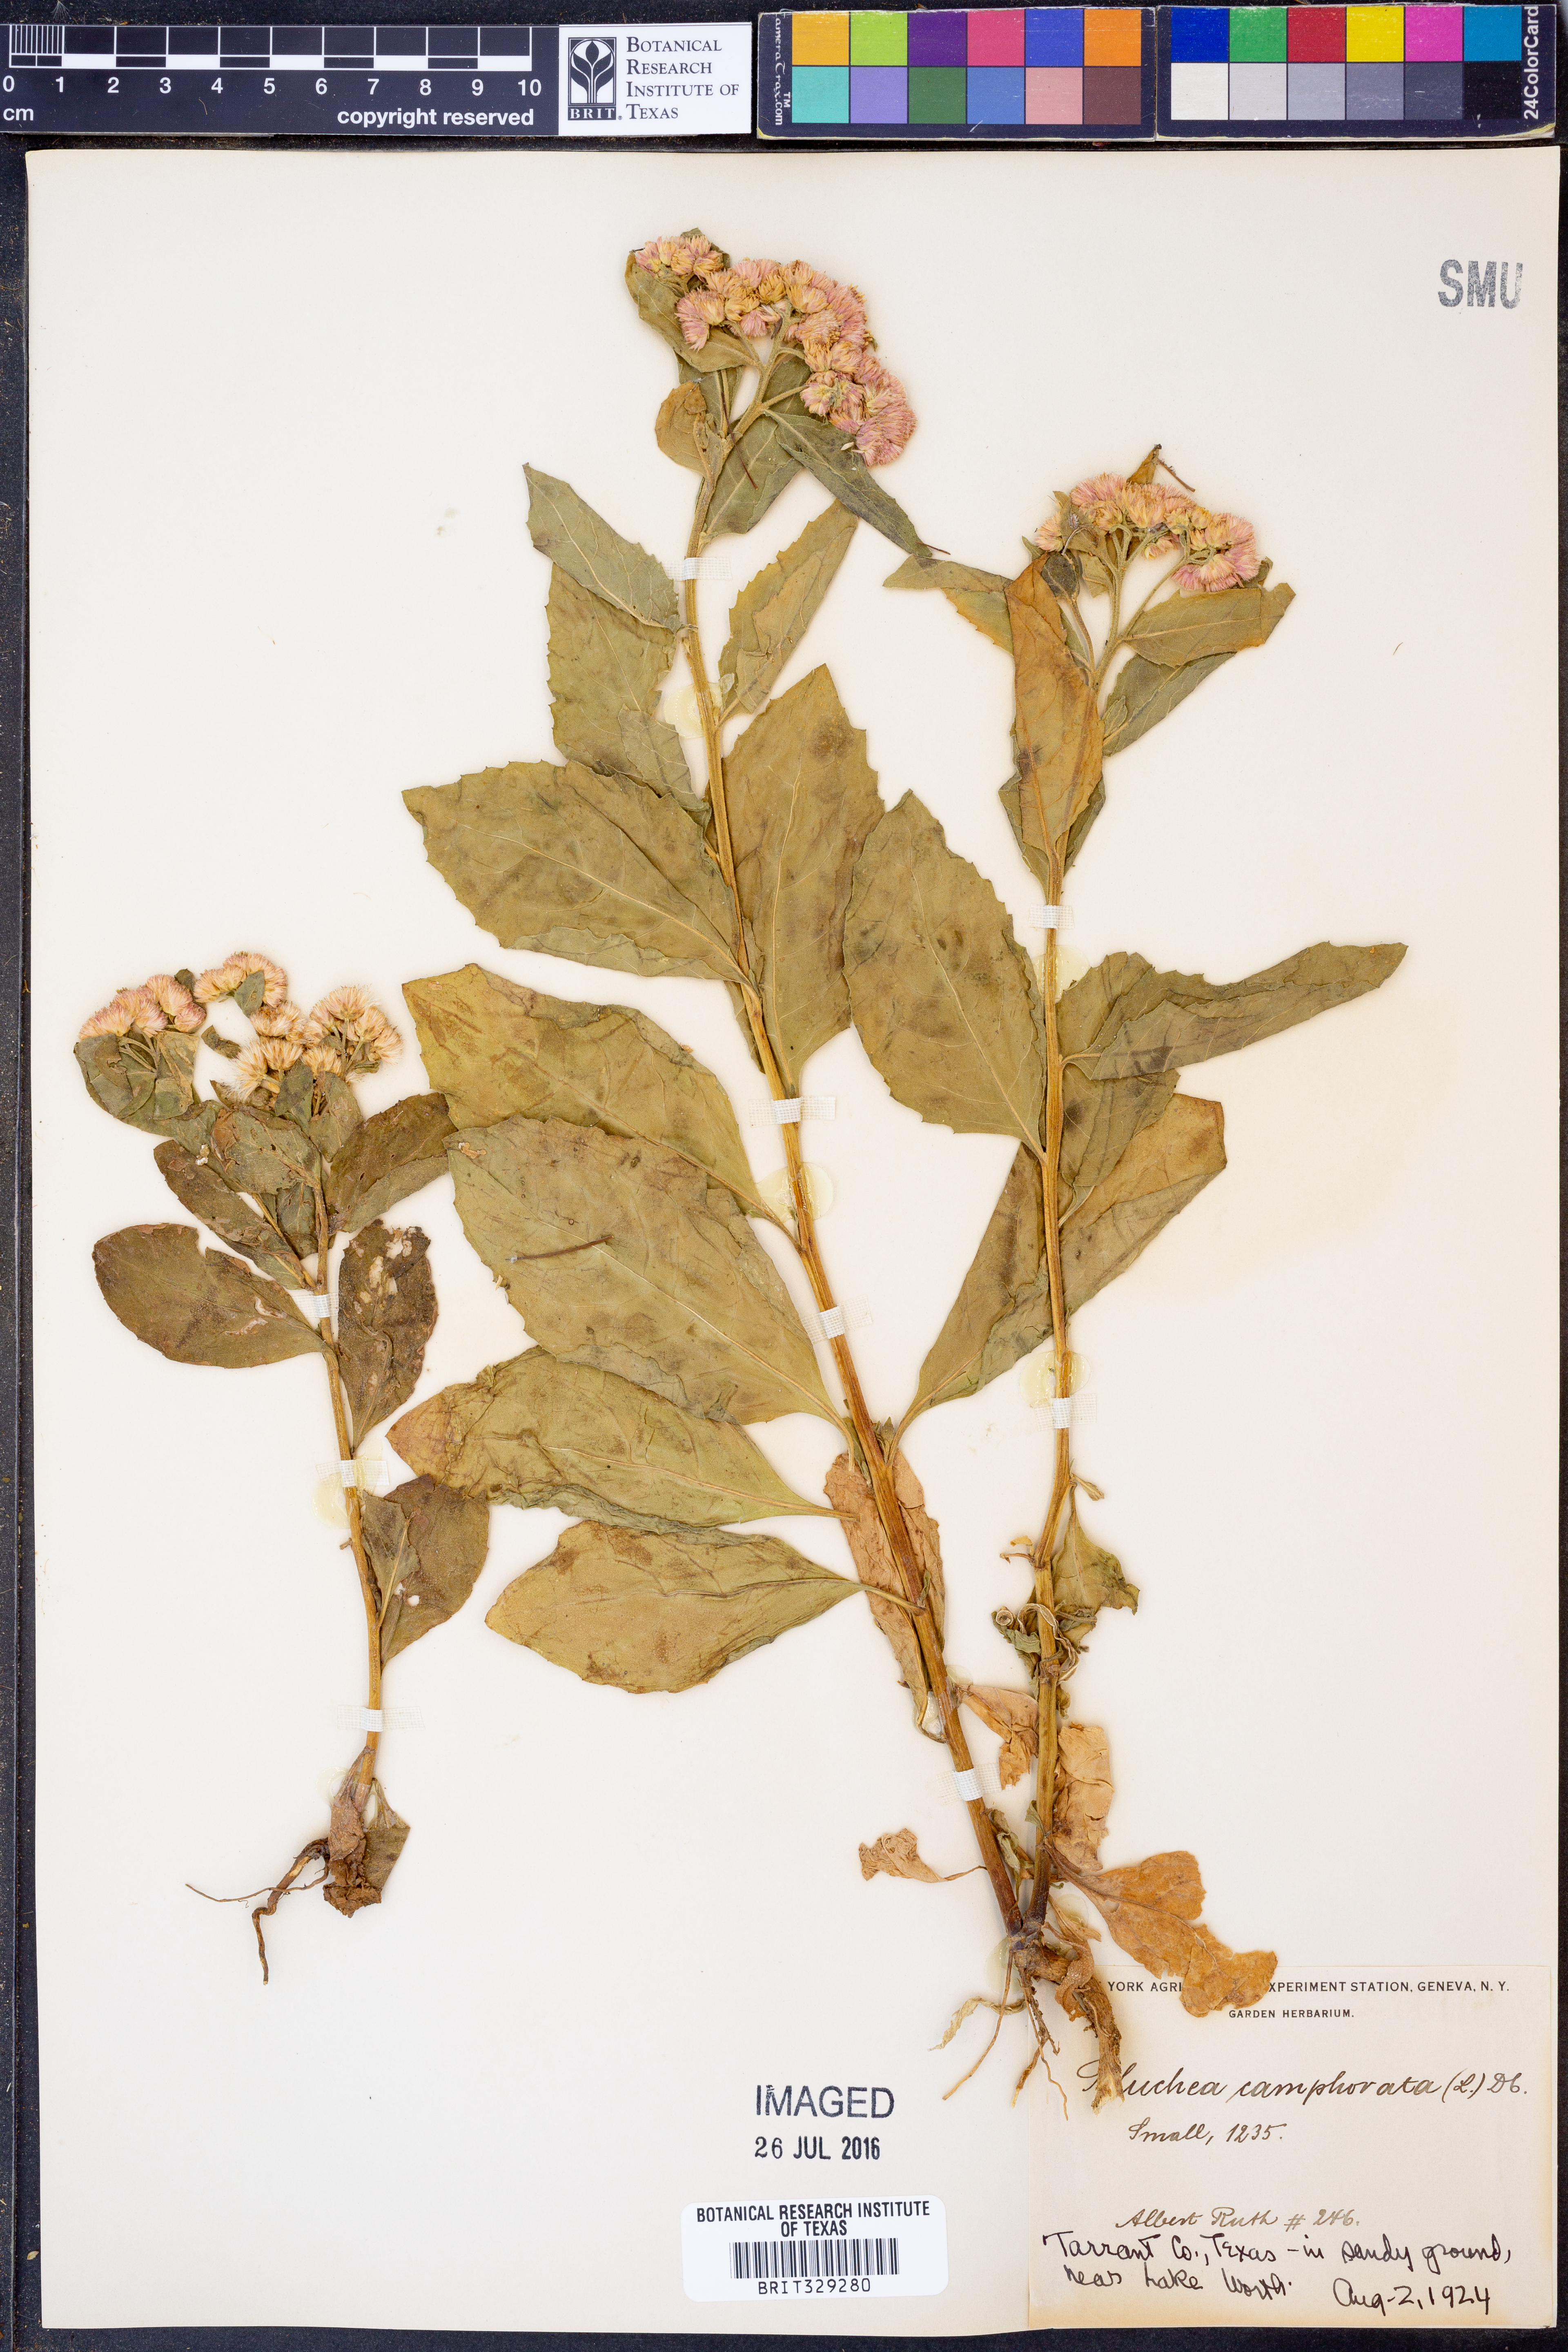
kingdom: Plantae
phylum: Tracheophyta
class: Magnoliopsida
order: Asterales
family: Asteraceae
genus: Pluchea
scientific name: Pluchea camphorata
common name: Camphor pluchea
